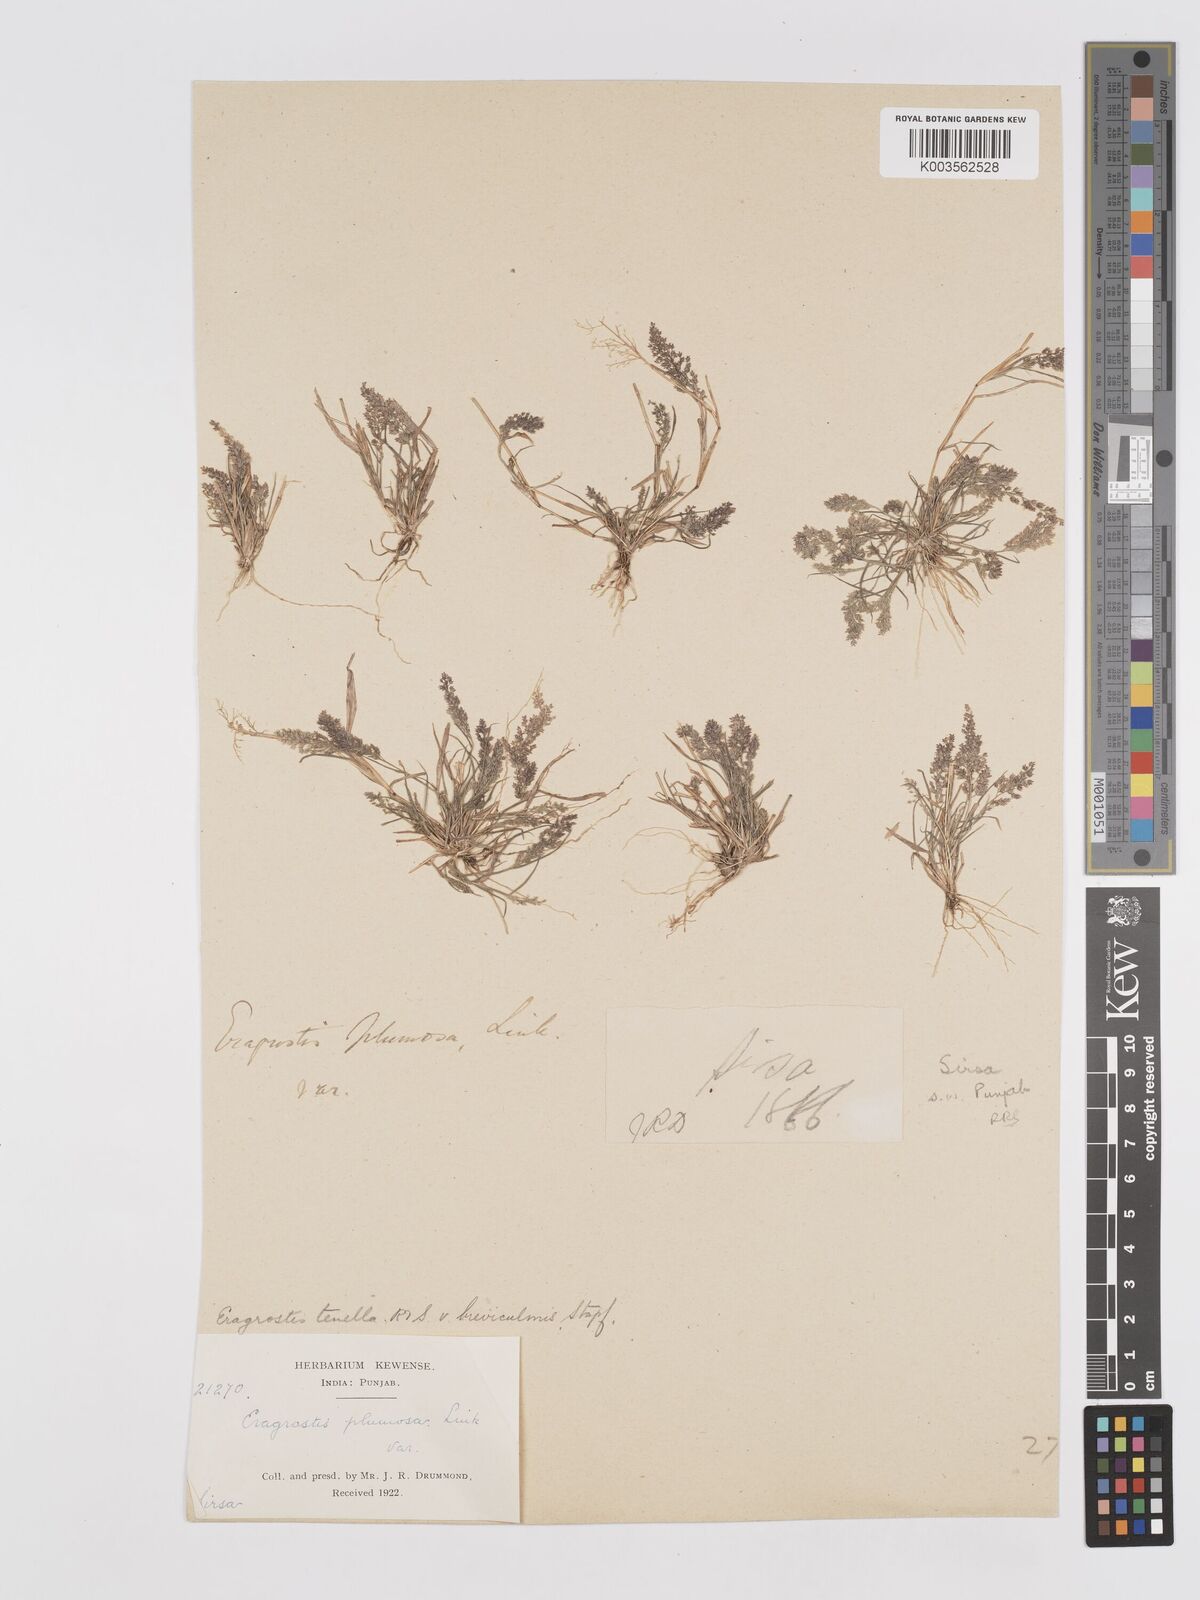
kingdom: Plantae
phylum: Tracheophyta
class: Liliopsida
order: Poales
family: Poaceae
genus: Eragrostis
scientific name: Eragrostis tenella
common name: Japanese lovegrass
